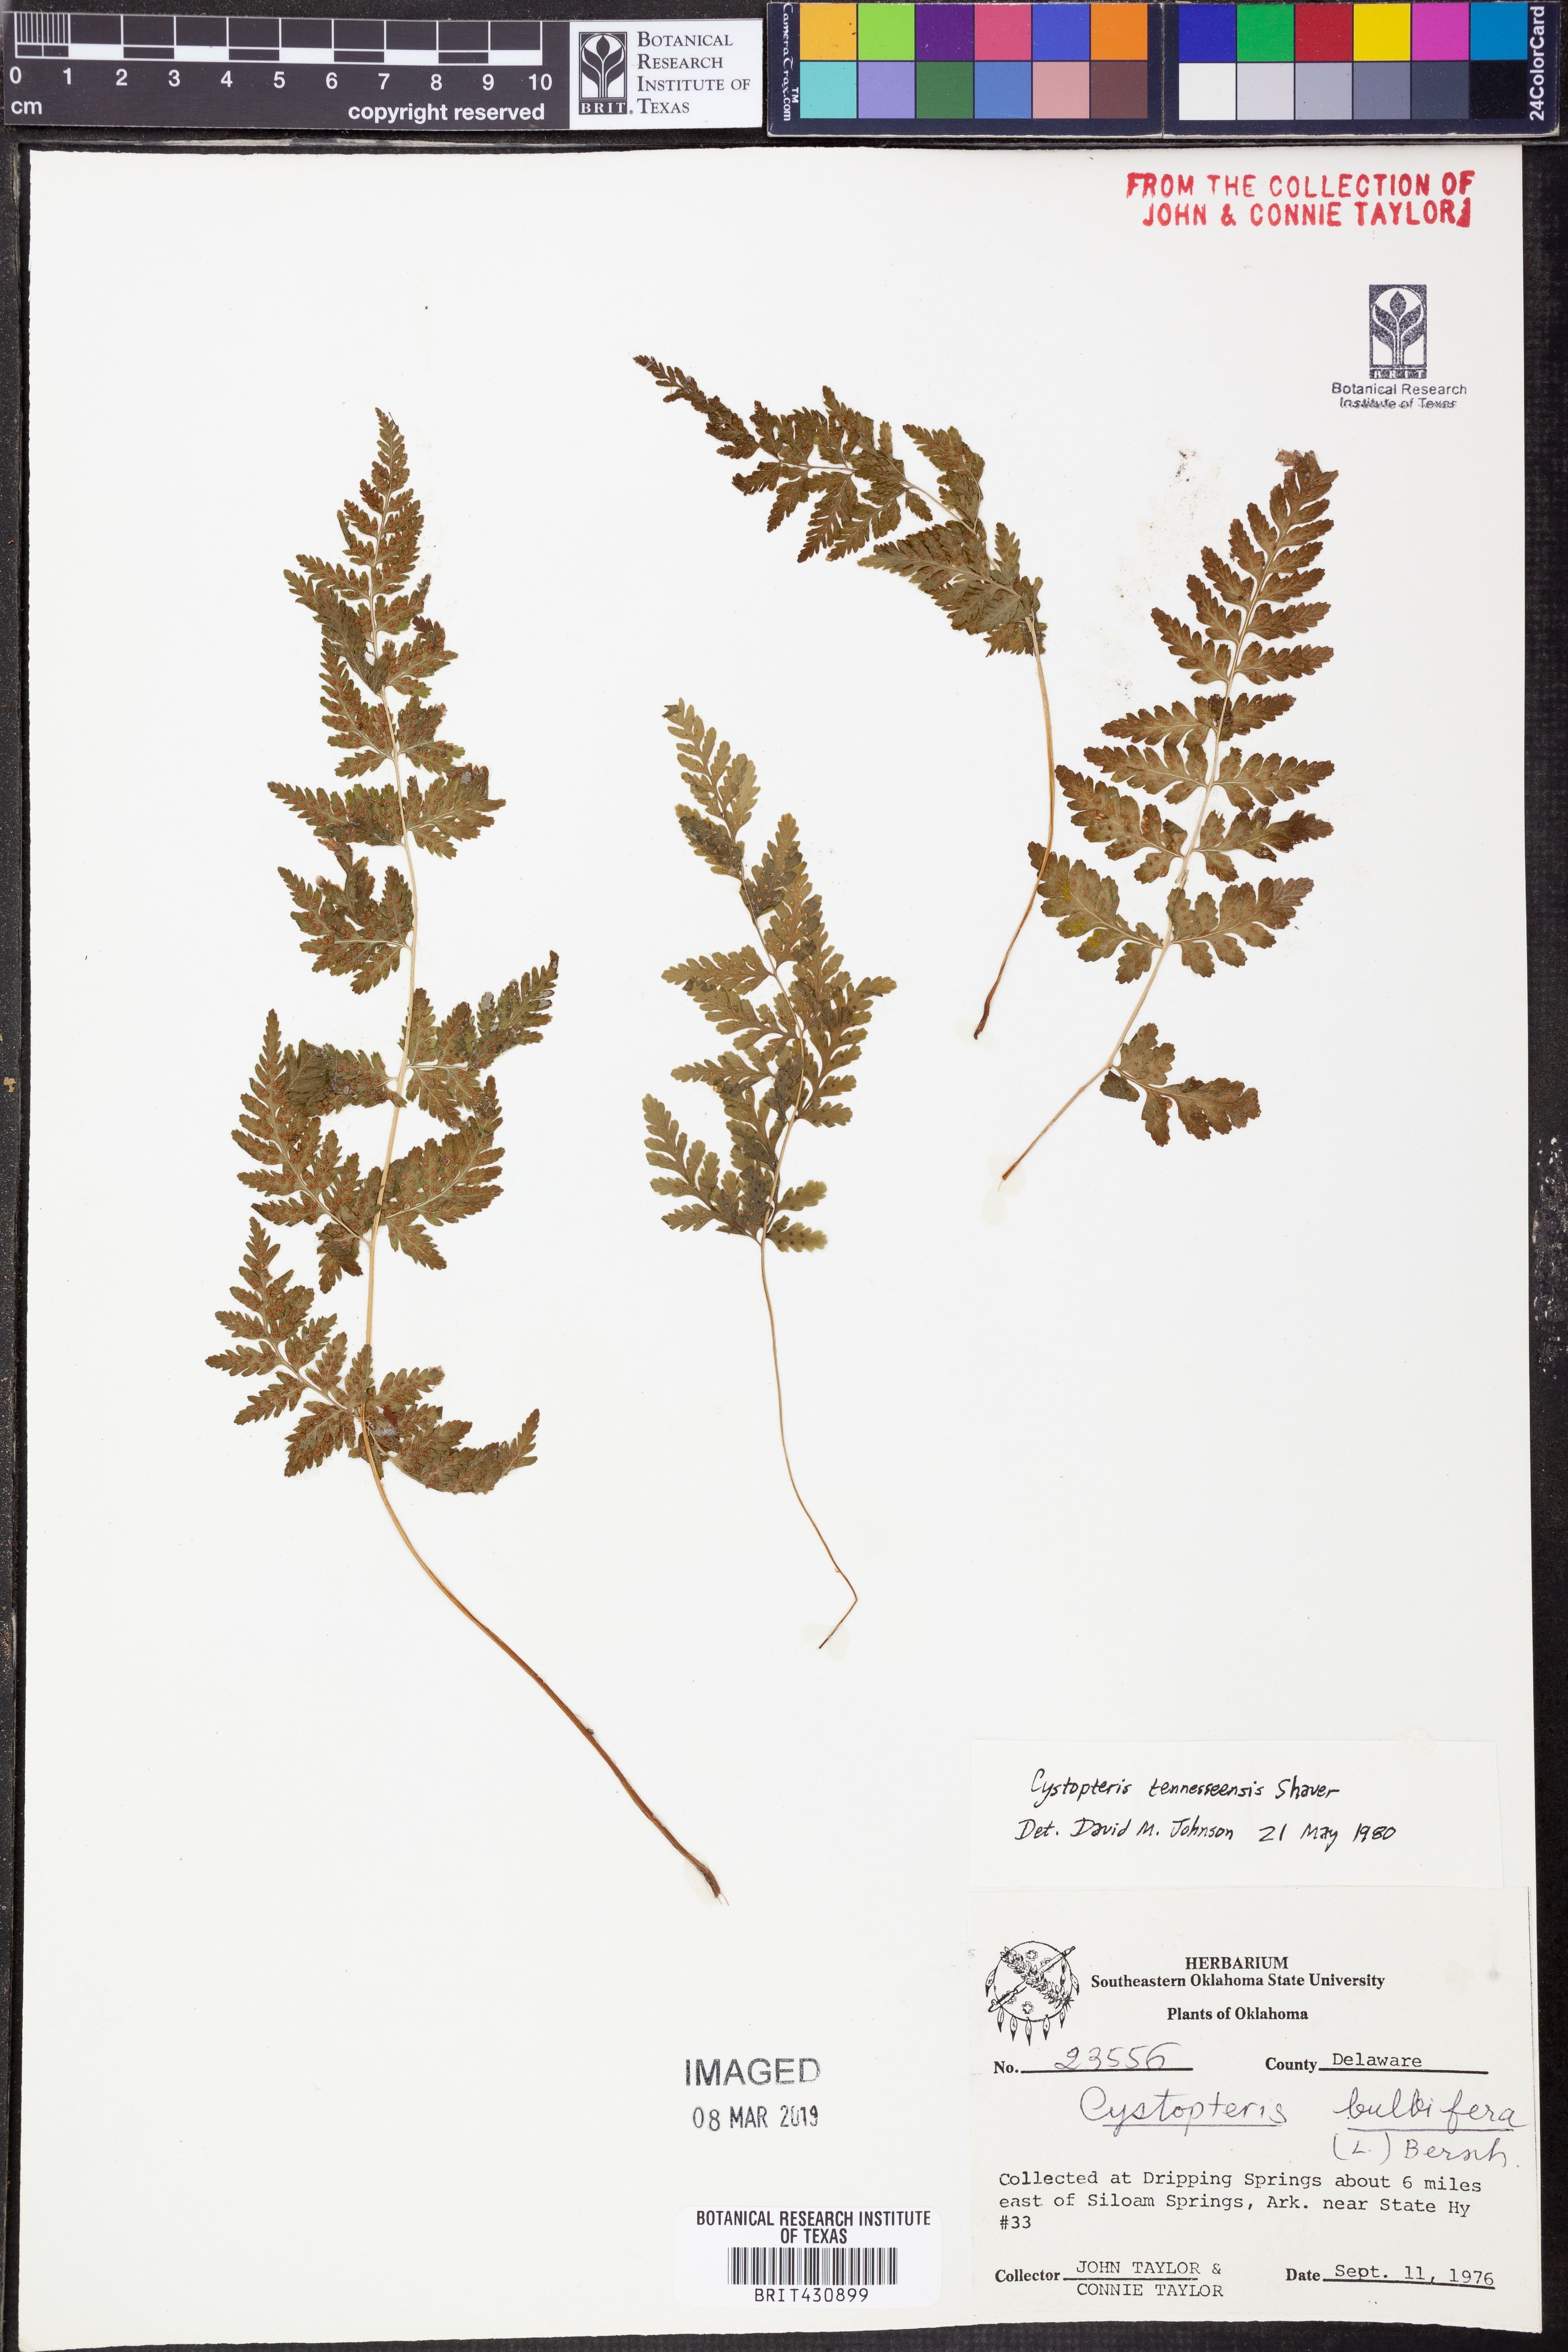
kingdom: Plantae
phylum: Tracheophyta
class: Polypodiopsida
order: Polypodiales
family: Cystopteridaceae
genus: Cystopteris
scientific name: Cystopteris tennesseensis
